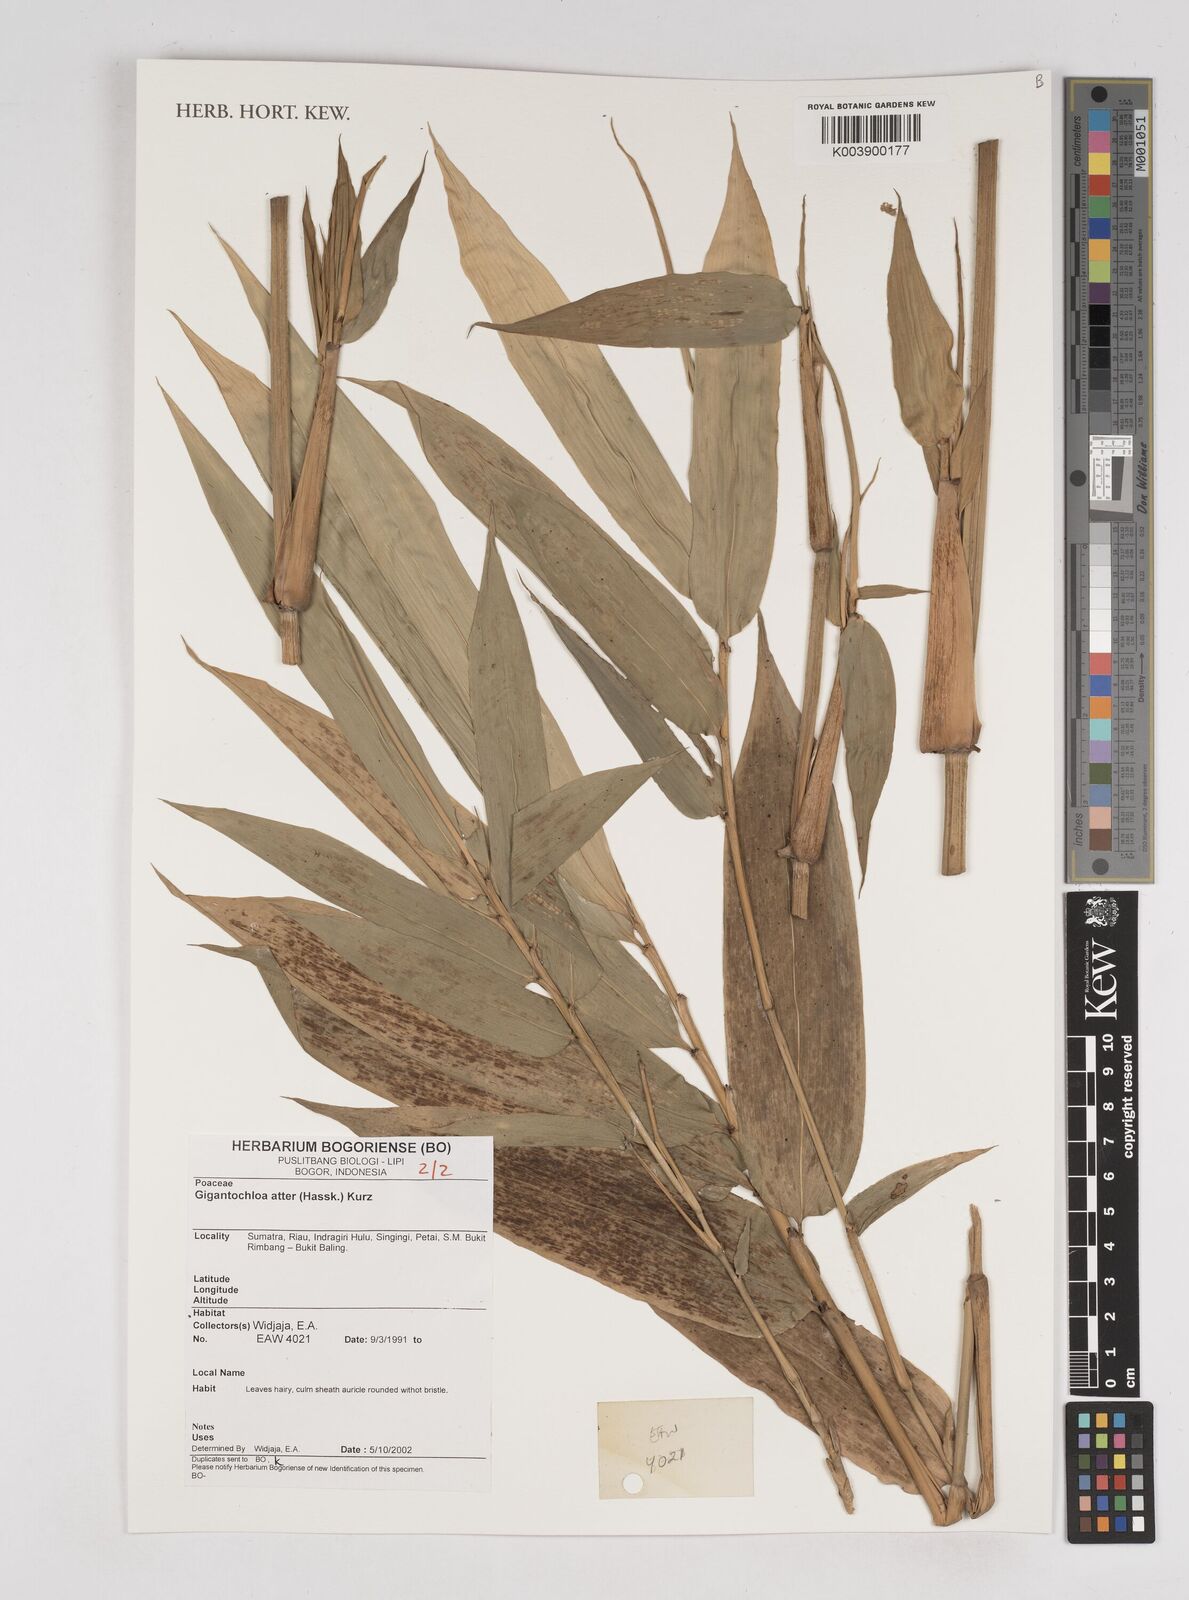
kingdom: Plantae
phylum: Tracheophyta
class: Liliopsida
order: Poales
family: Poaceae
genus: Gigantochloa
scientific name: Gigantochloa atter
